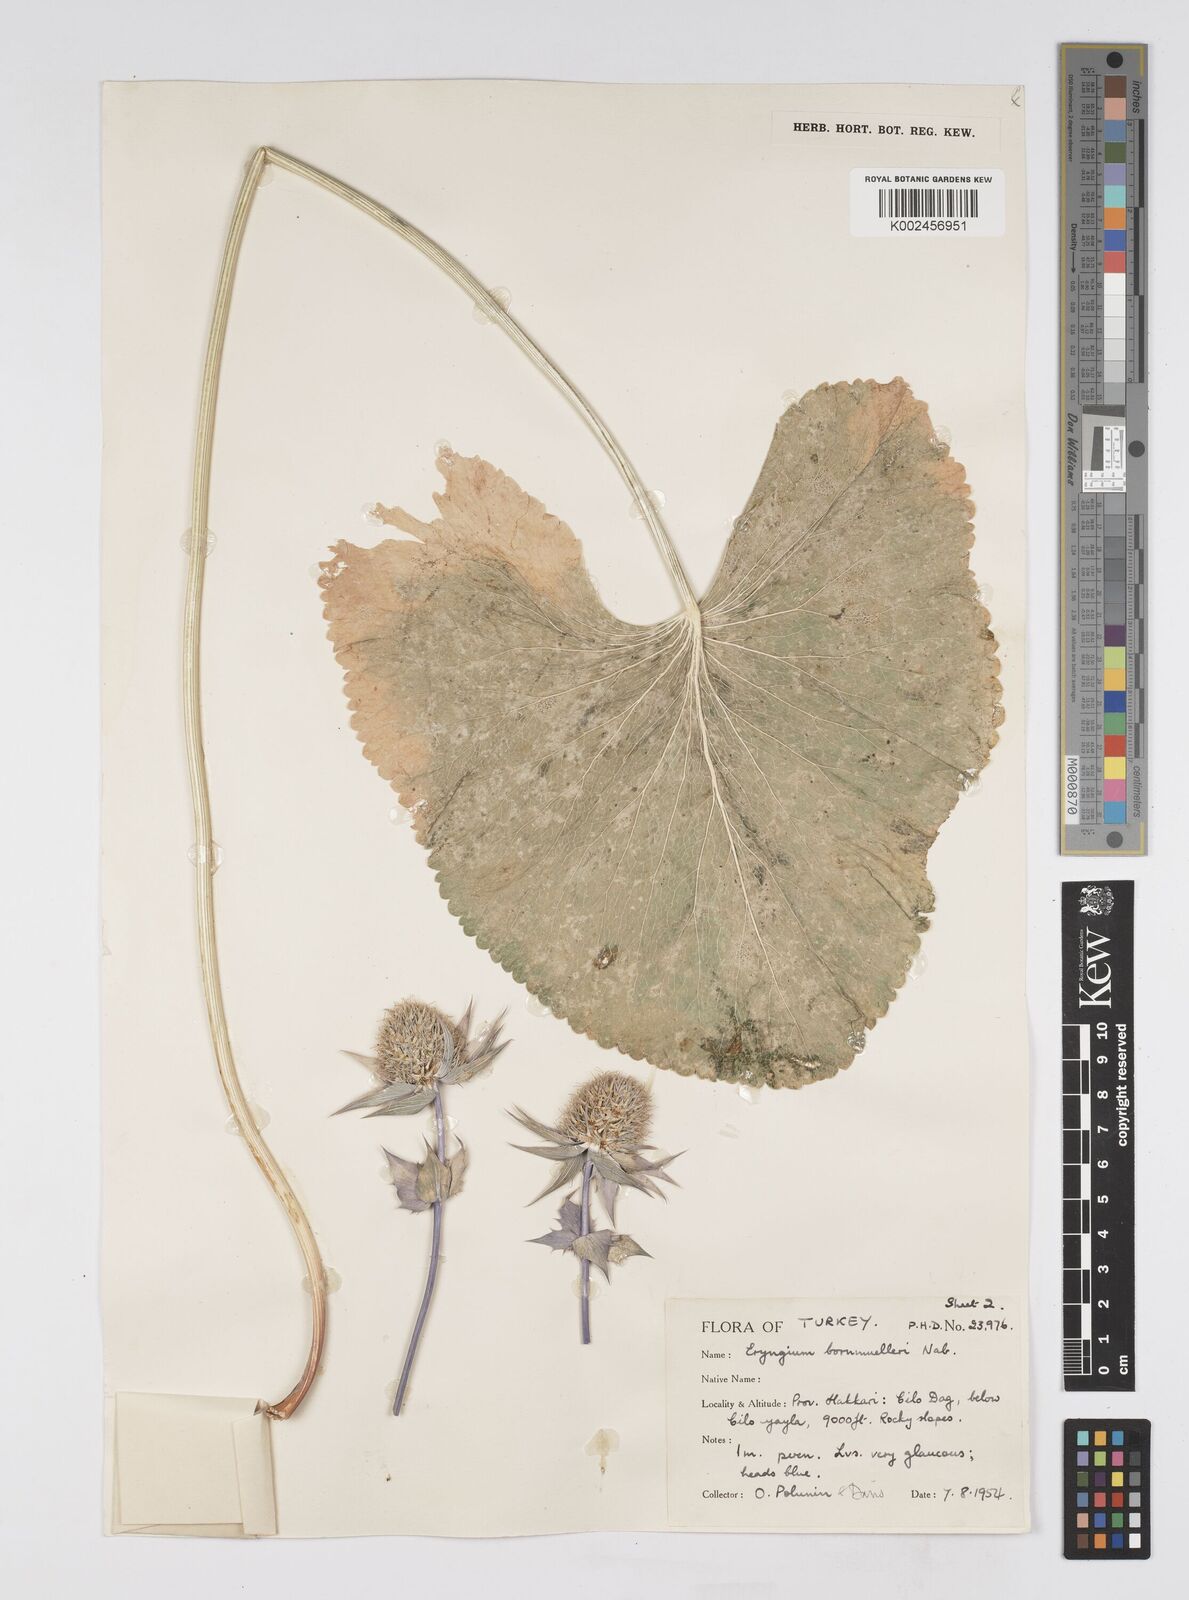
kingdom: Plantae
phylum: Tracheophyta
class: Magnoliopsida
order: Apiales
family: Apiaceae
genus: Eryngium
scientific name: Eryngium bornmuelleri
